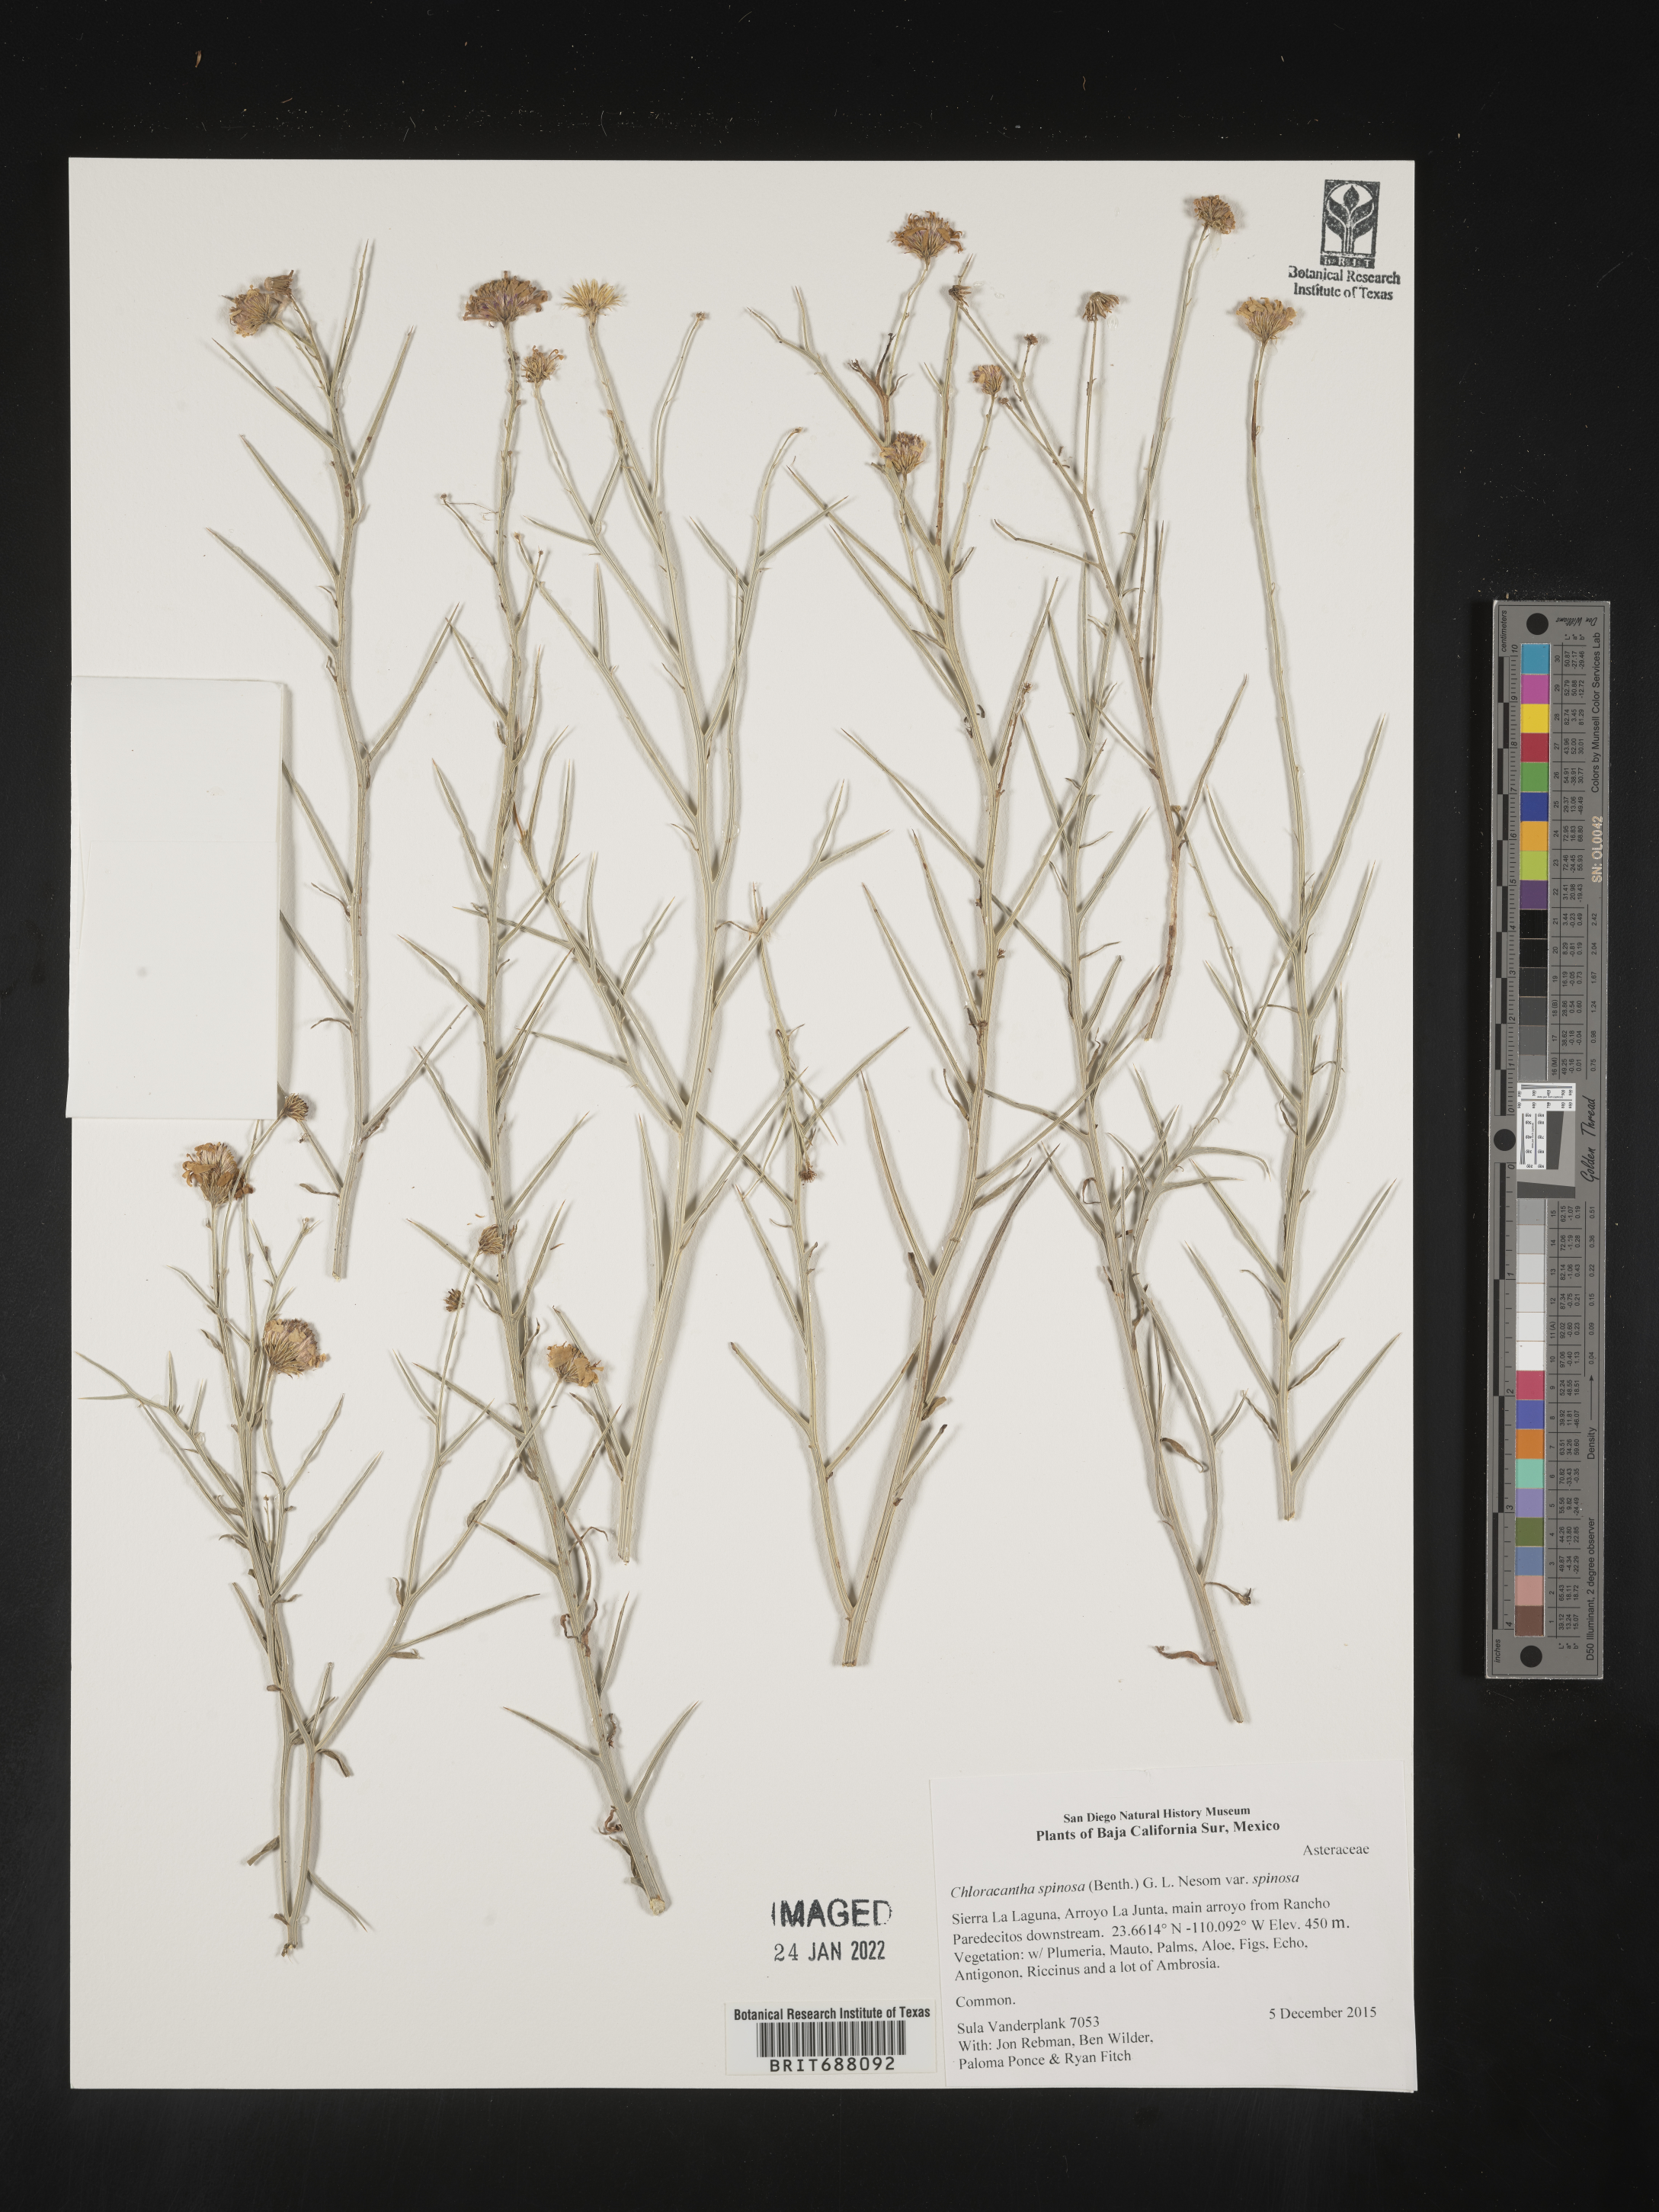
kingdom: Plantae
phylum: Tracheophyta
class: Magnoliopsida
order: Asterales
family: Asteraceae
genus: Chloracantha
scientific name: Chloracantha
